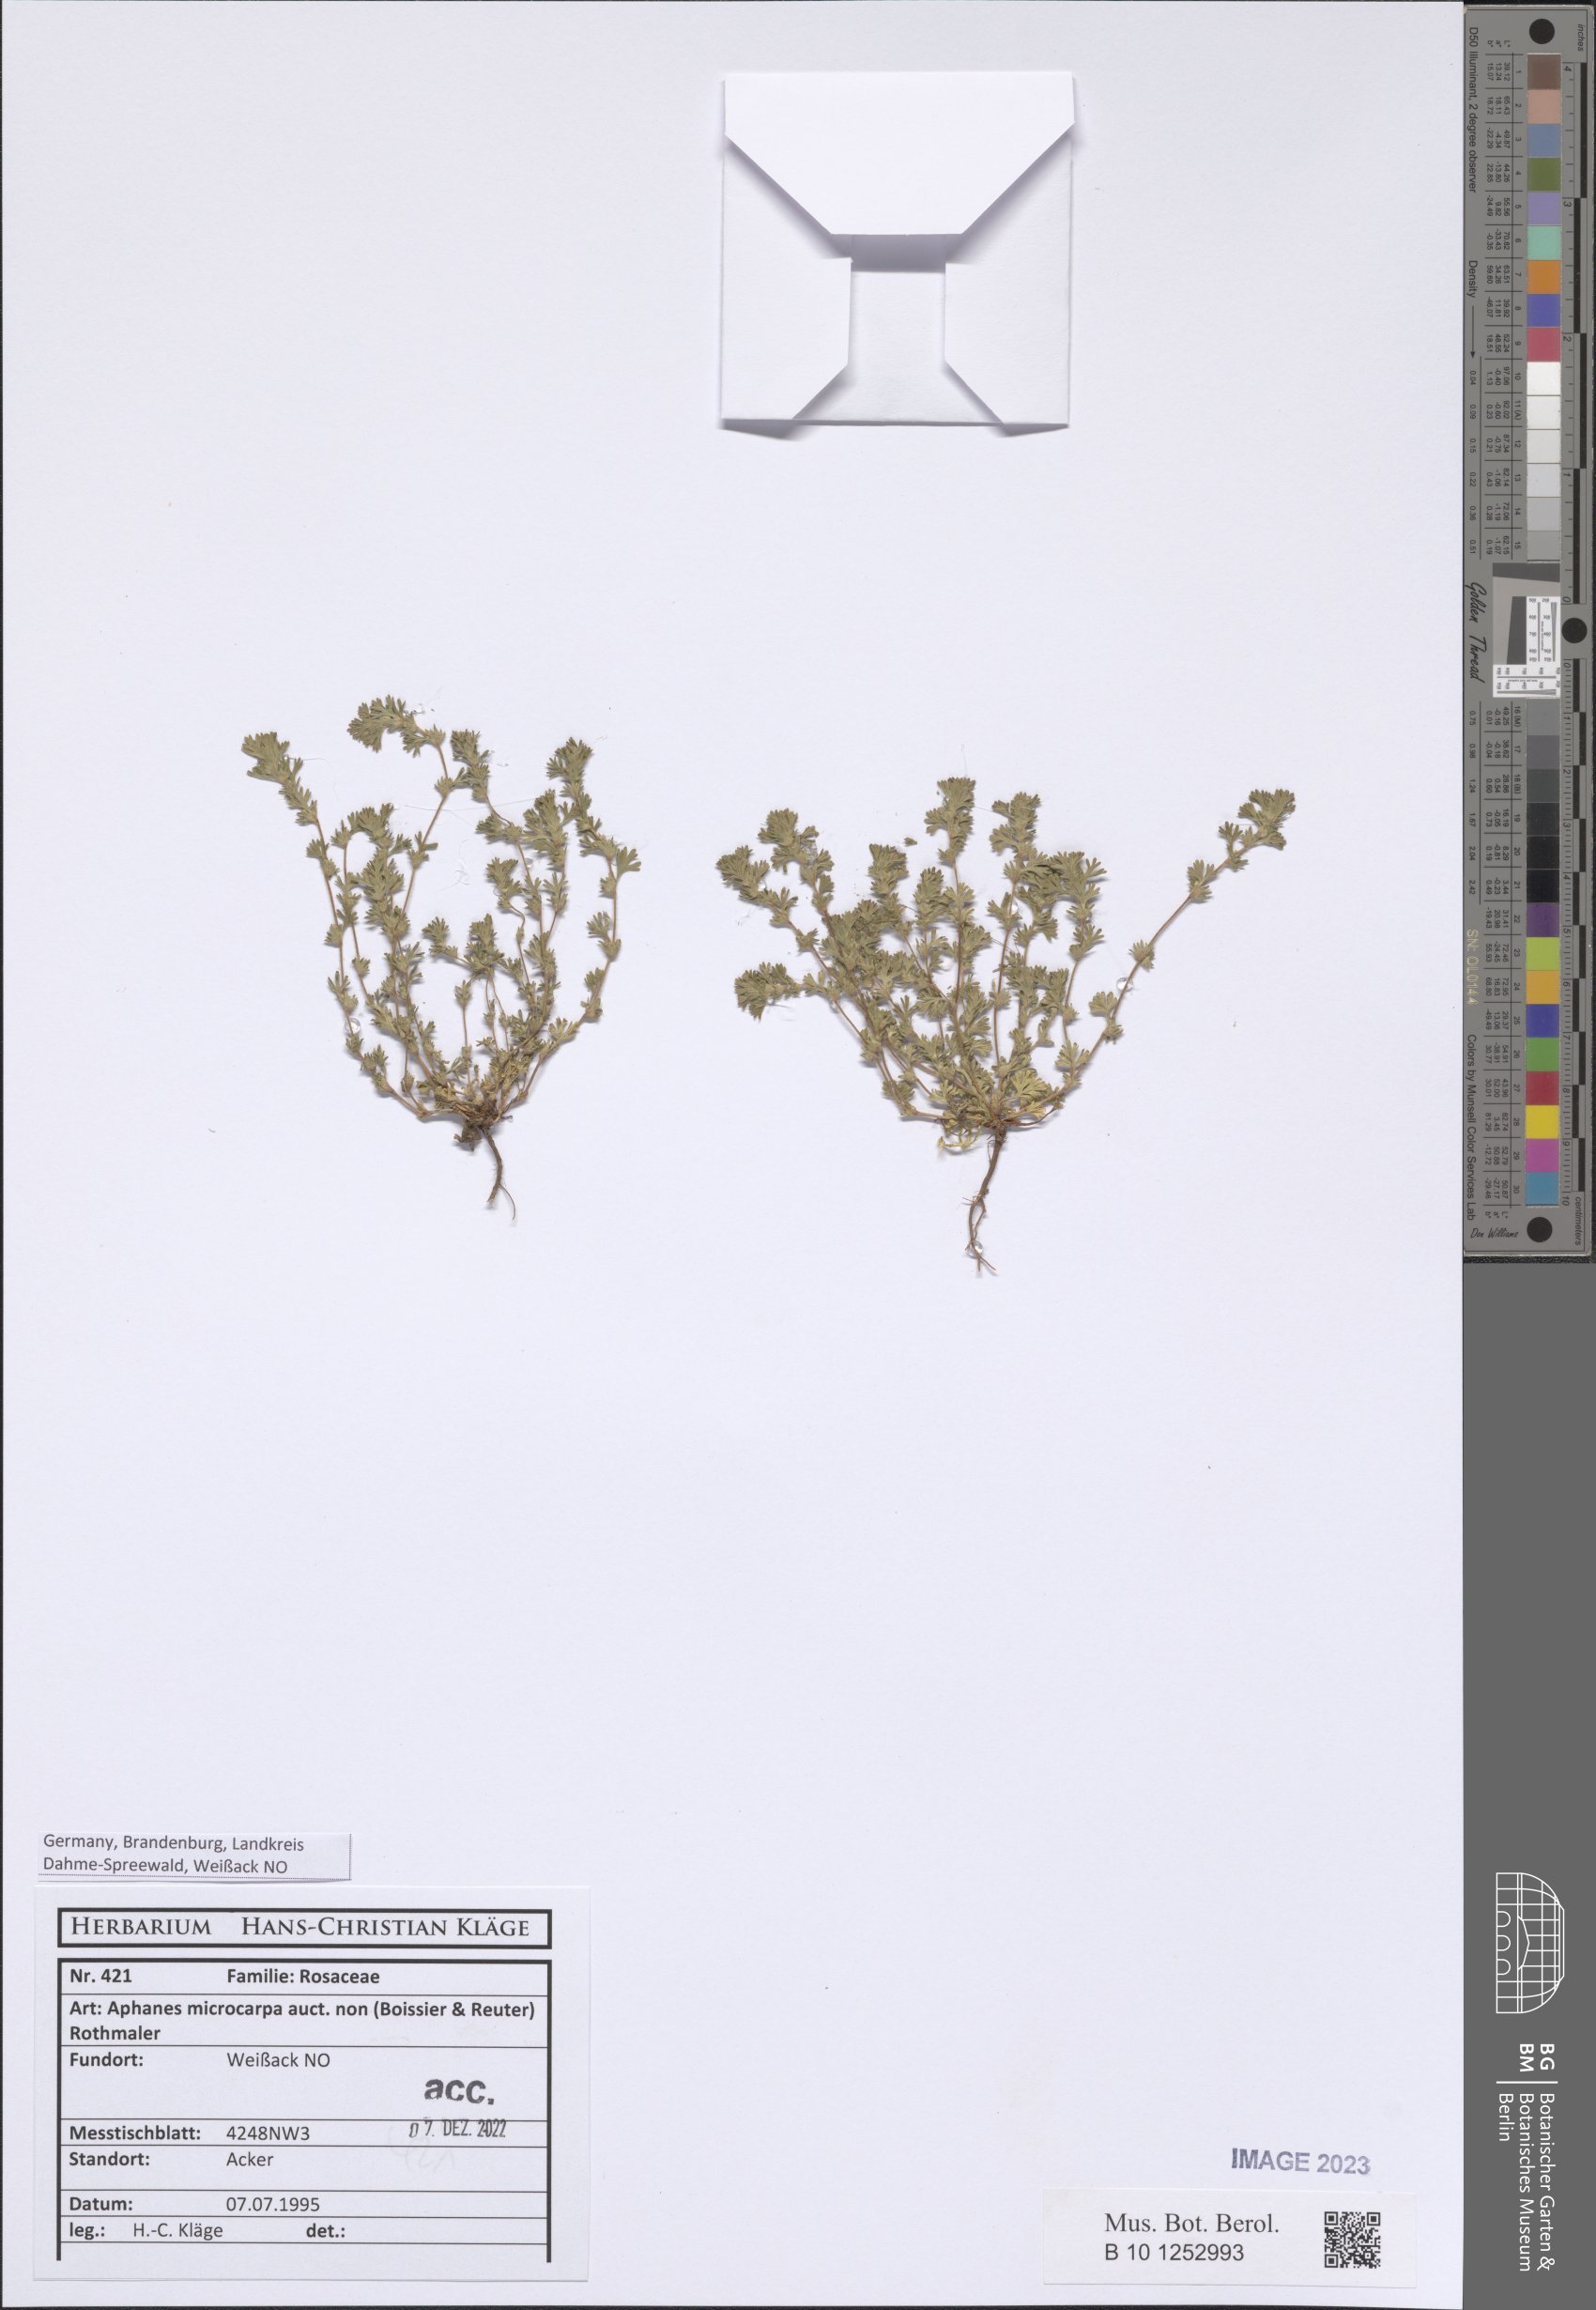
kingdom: Plantae
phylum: Tracheophyta
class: Magnoliopsida
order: Rosales
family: Rosaceae
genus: Aphanes
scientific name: Aphanes microcarpa
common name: Slender parsley piert
